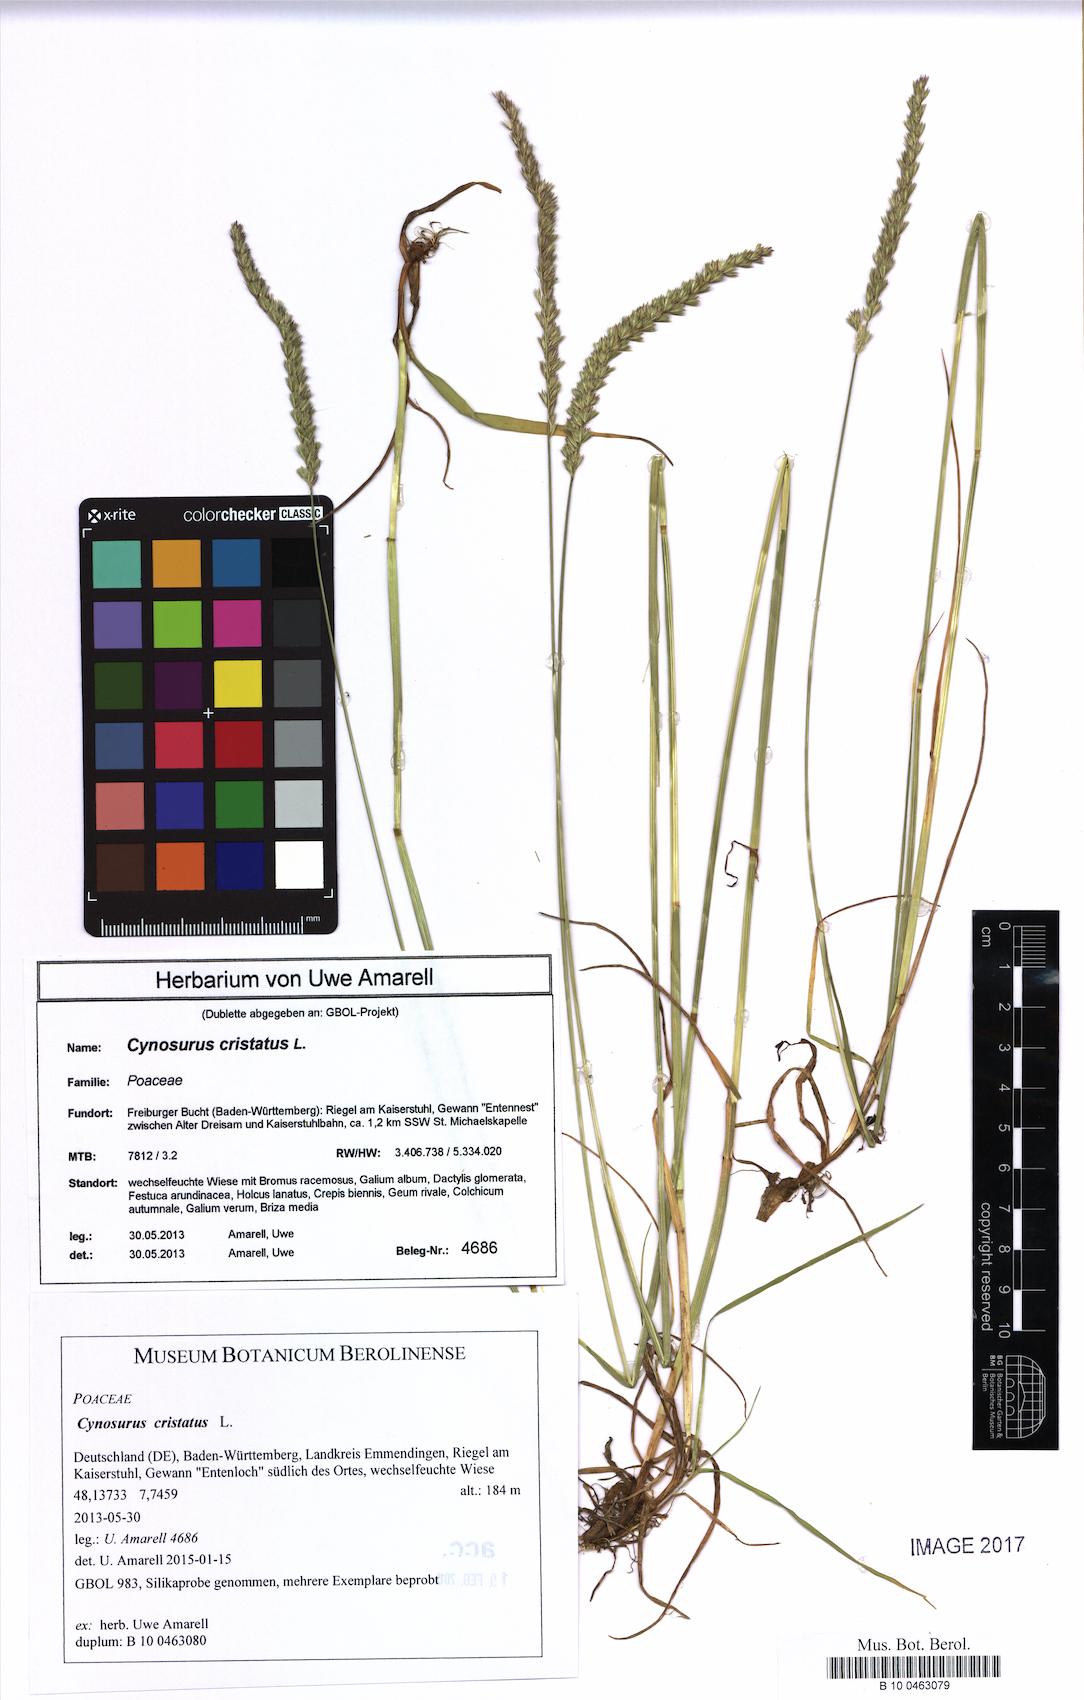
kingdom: Plantae
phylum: Tracheophyta
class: Liliopsida
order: Poales
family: Poaceae
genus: Cynosurus
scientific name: Cynosurus cristatus
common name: Crested dog's-tail
